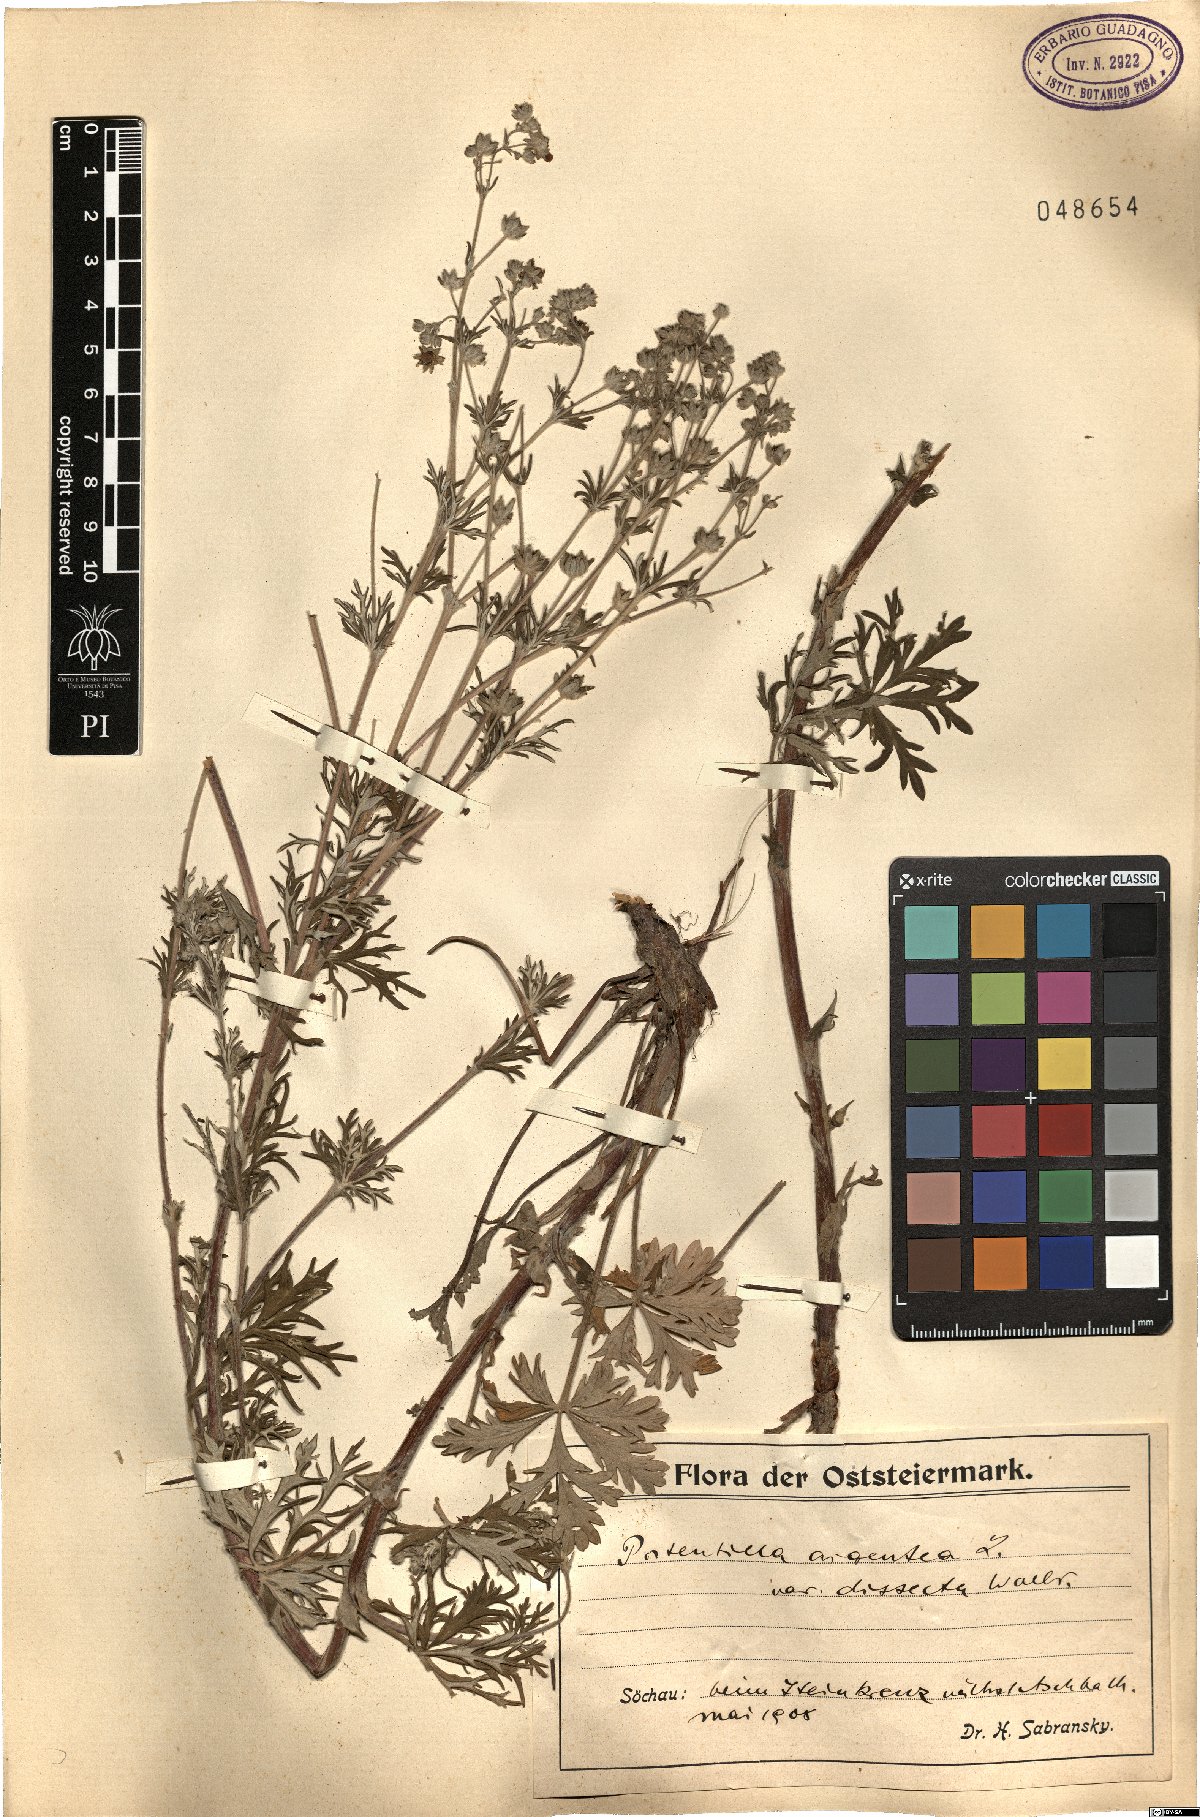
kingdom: Plantae
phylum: Tracheophyta
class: Magnoliopsida
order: Rosales
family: Rosaceae
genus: Potentilla
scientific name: Potentilla neglecta
